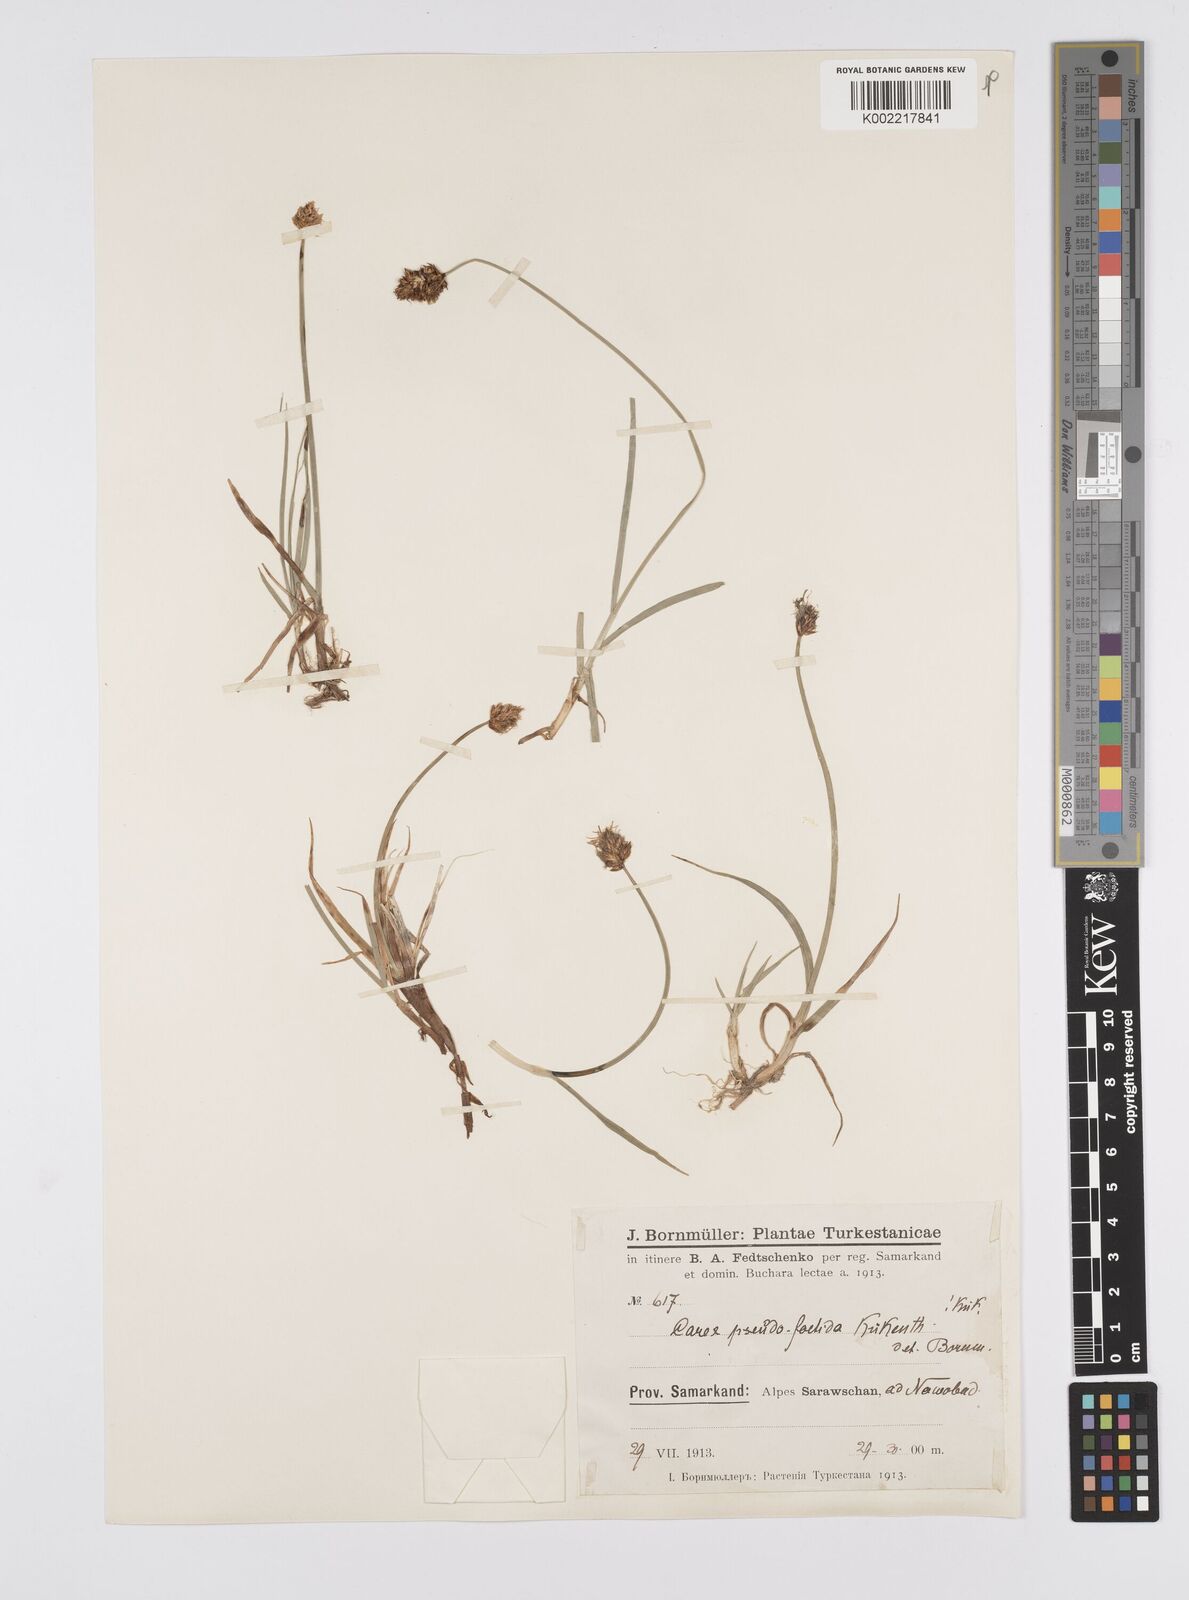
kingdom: Plantae
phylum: Tracheophyta
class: Liliopsida
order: Poales
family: Cyperaceae
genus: Carex
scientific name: Carex pseudofoetida
